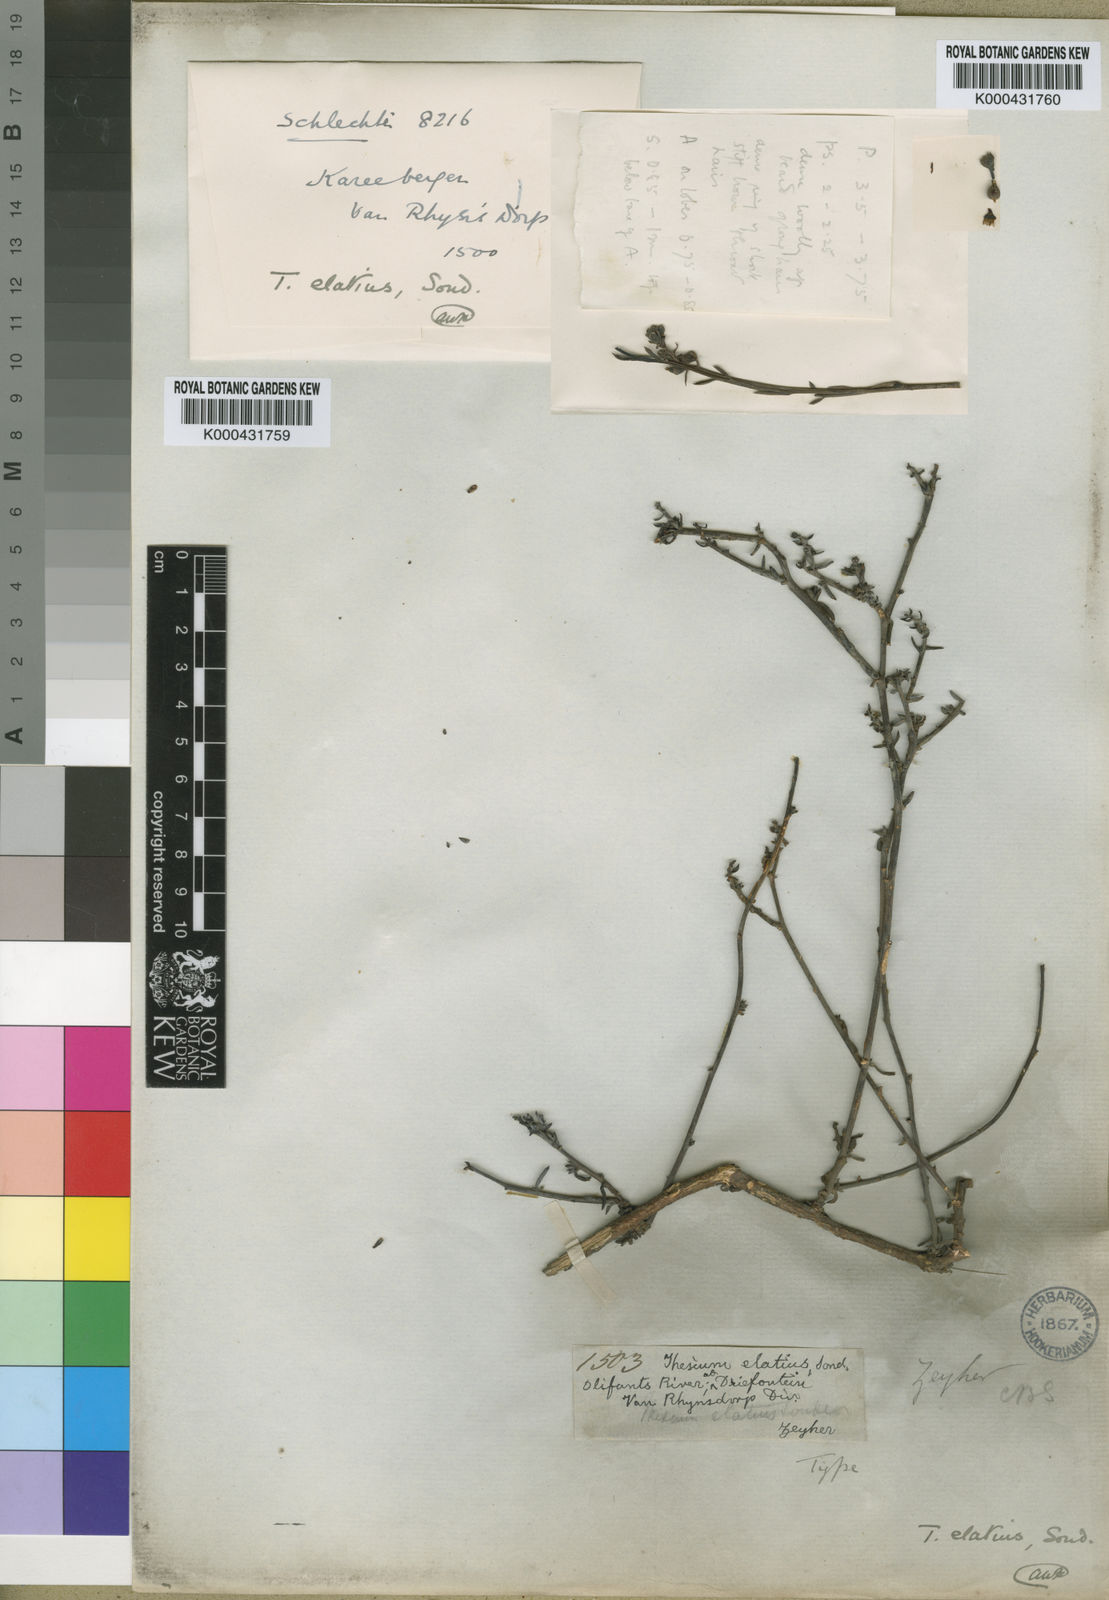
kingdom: Plantae
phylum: Tracheophyta
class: Magnoliopsida
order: Santalales
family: Thesiaceae
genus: Thesium
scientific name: Thesium elatius
